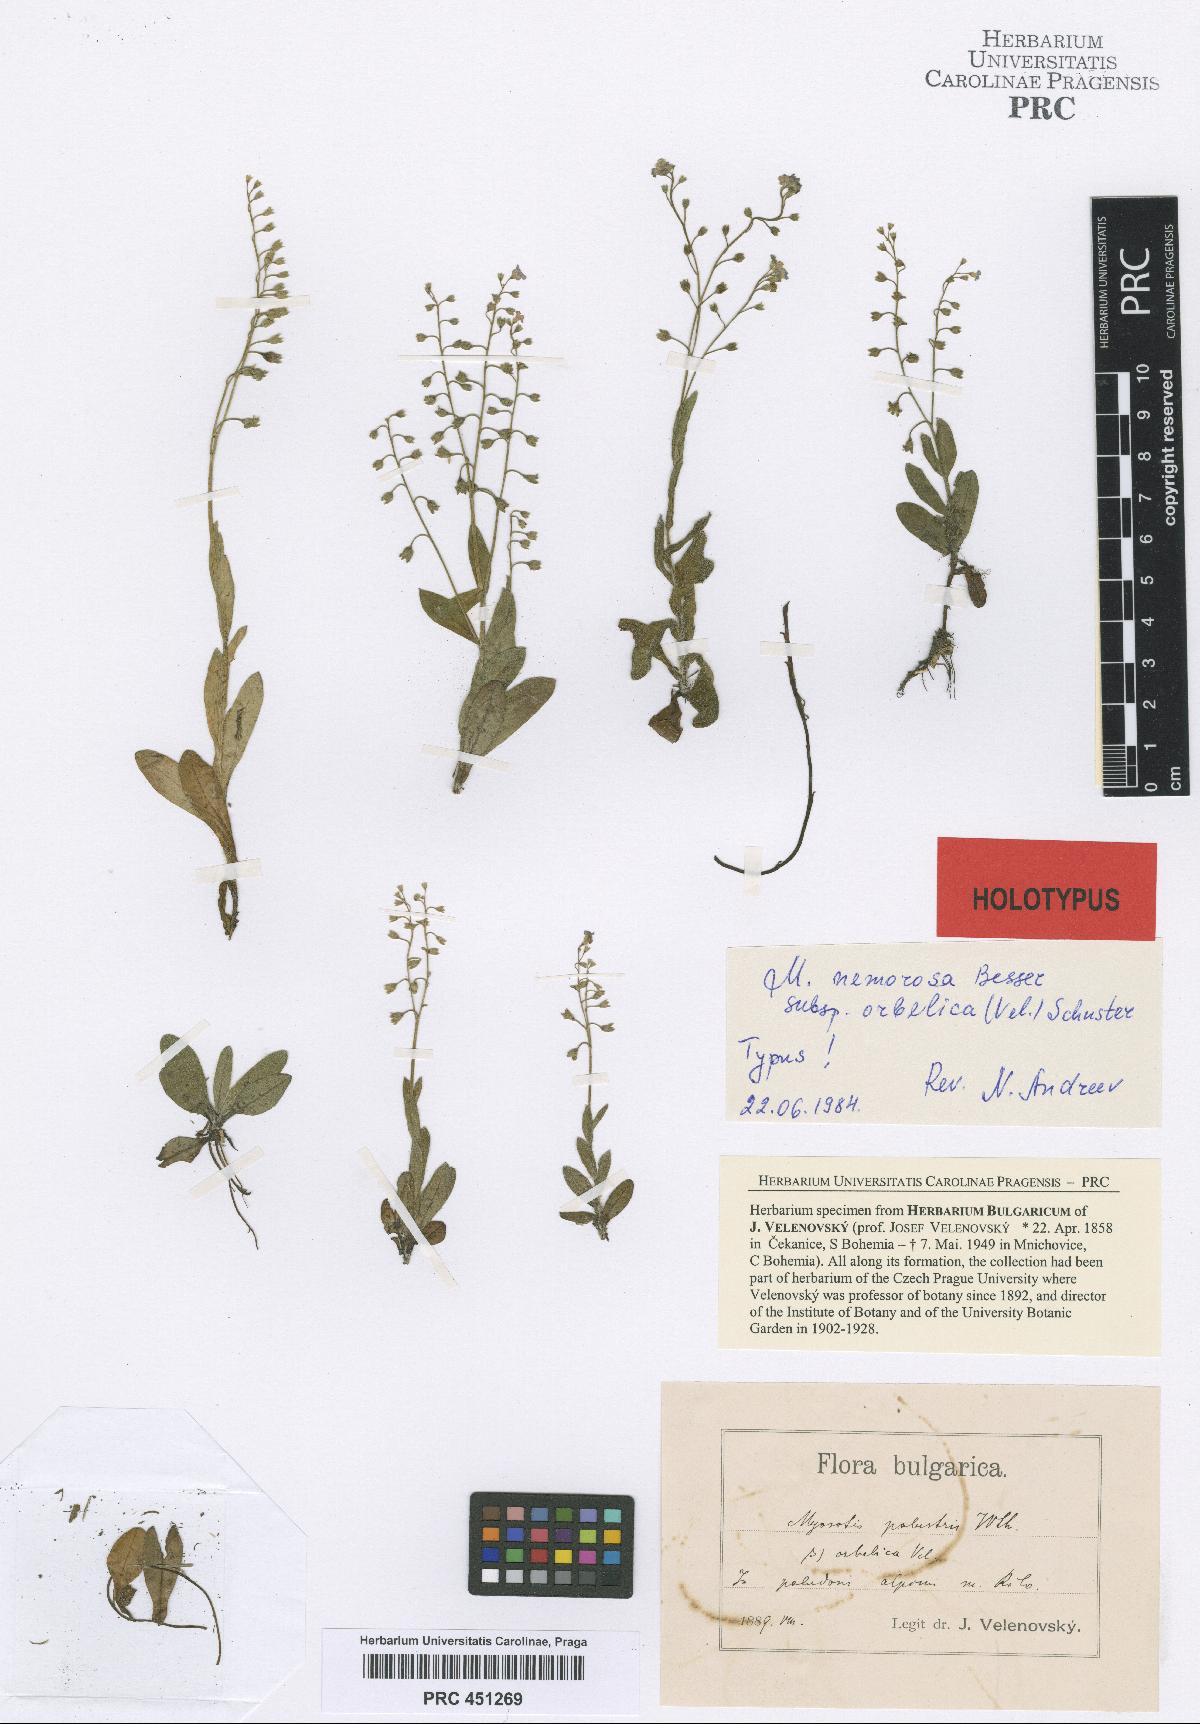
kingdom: Plantae
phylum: Tracheophyta
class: Magnoliopsida
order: Boraginales
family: Boraginaceae
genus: Myosotis
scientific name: Myosotis nemorosa
